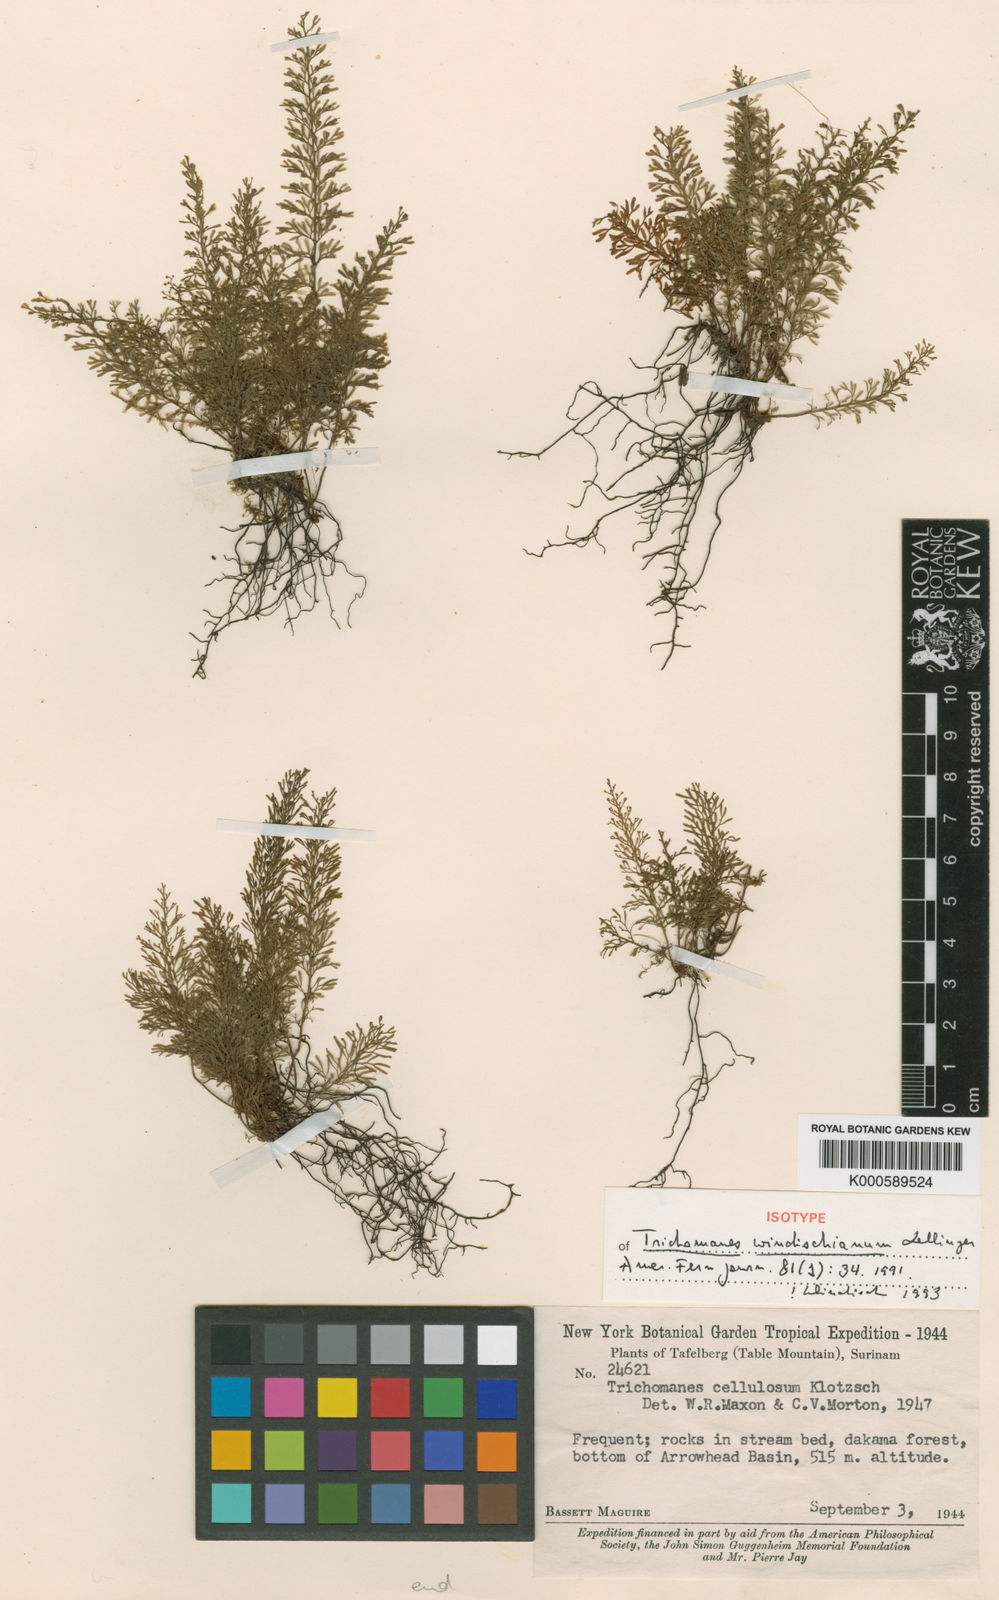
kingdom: Plantae
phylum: Tracheophyta
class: Polypodiopsida
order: Hymenophyllales
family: Hymenophyllaceae
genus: Abrodictyum
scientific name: Abrodictyum windischianum
